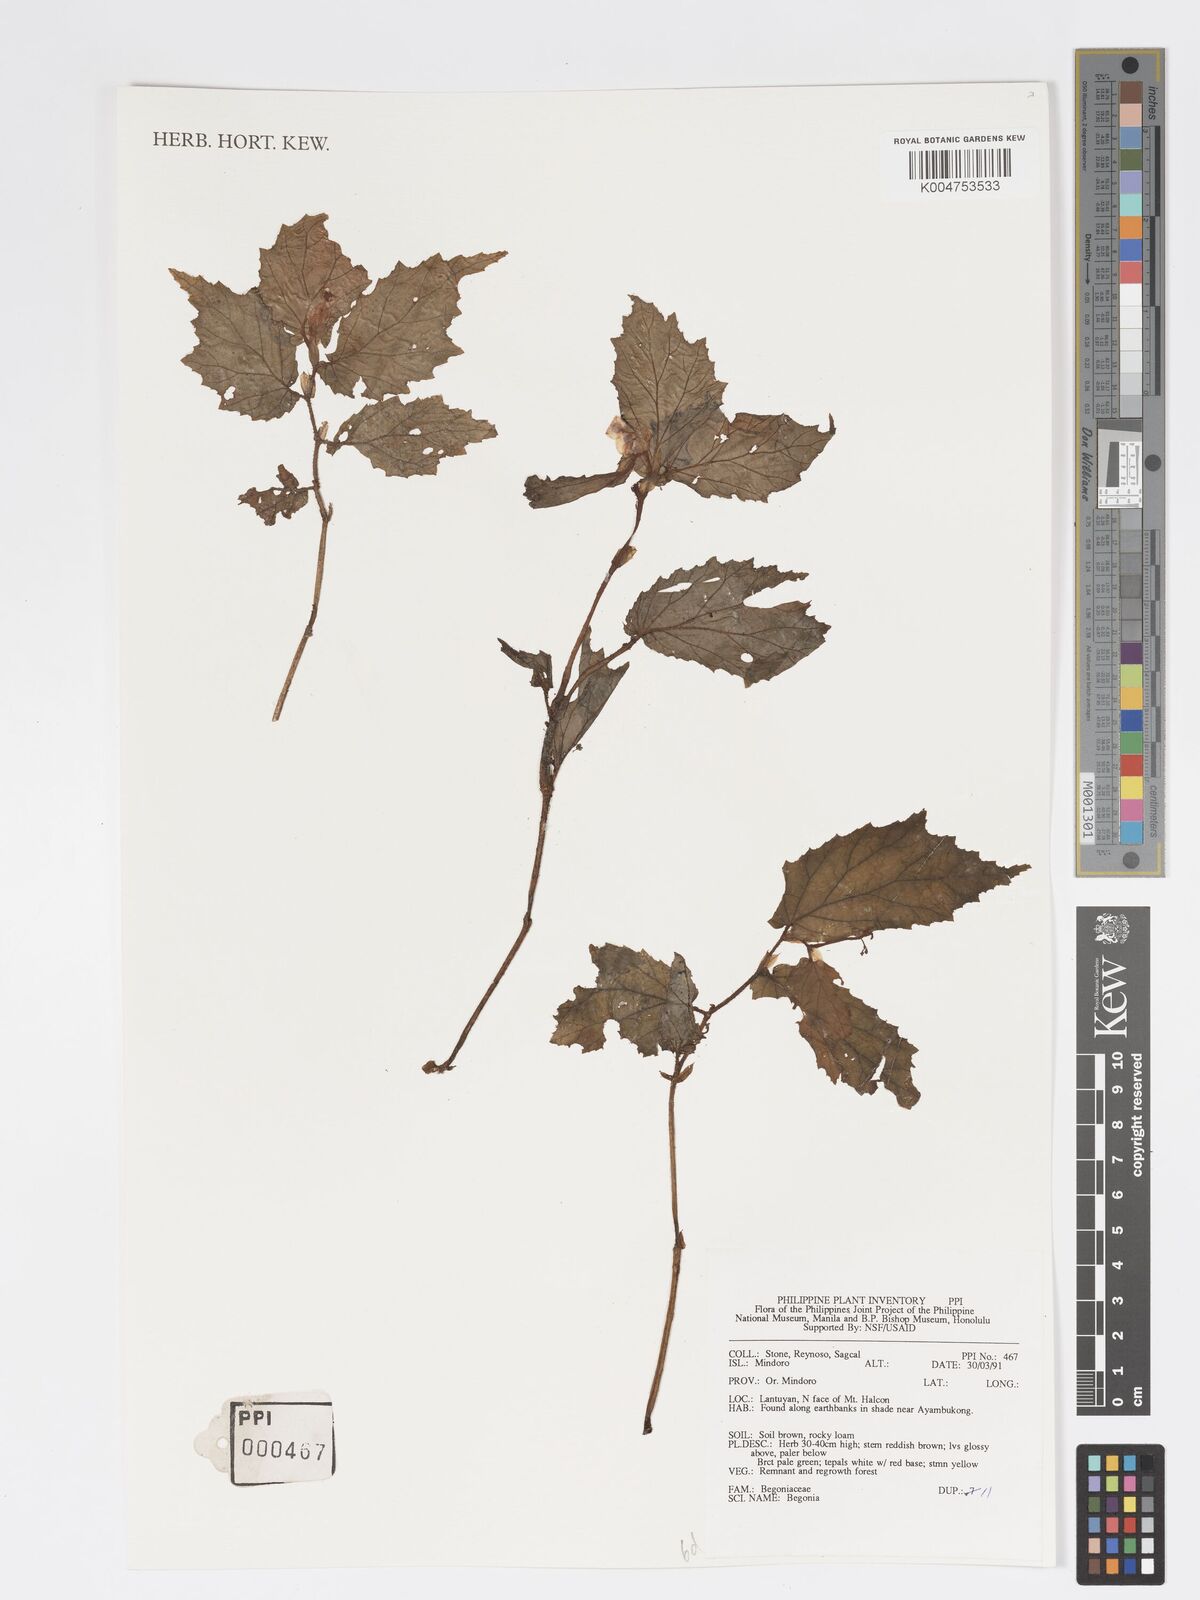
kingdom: Plantae
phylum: Tracheophyta
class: Magnoliopsida
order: Cucurbitales
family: Begoniaceae
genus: Begonia
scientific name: Begonia
